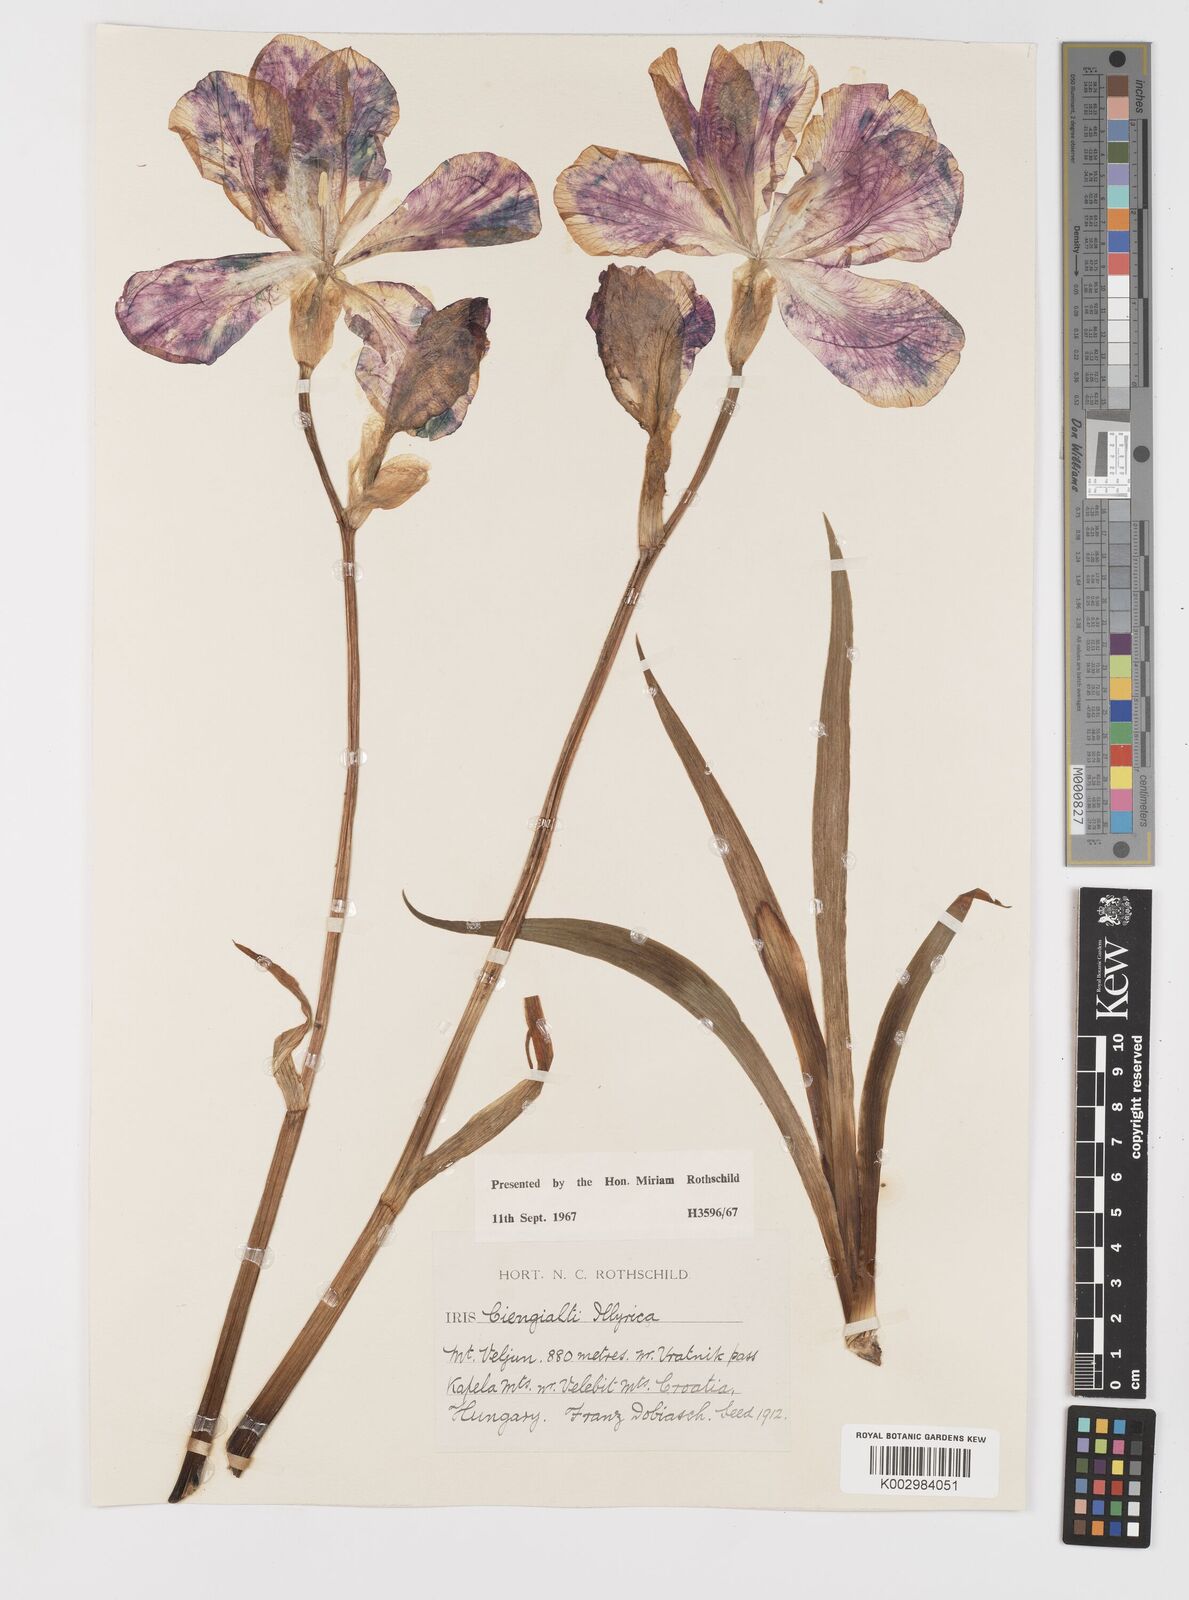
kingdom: Plantae
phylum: Tracheophyta
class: Liliopsida
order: Asparagales
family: Iridaceae
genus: Iris
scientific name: Iris pallida
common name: Sweet iris
